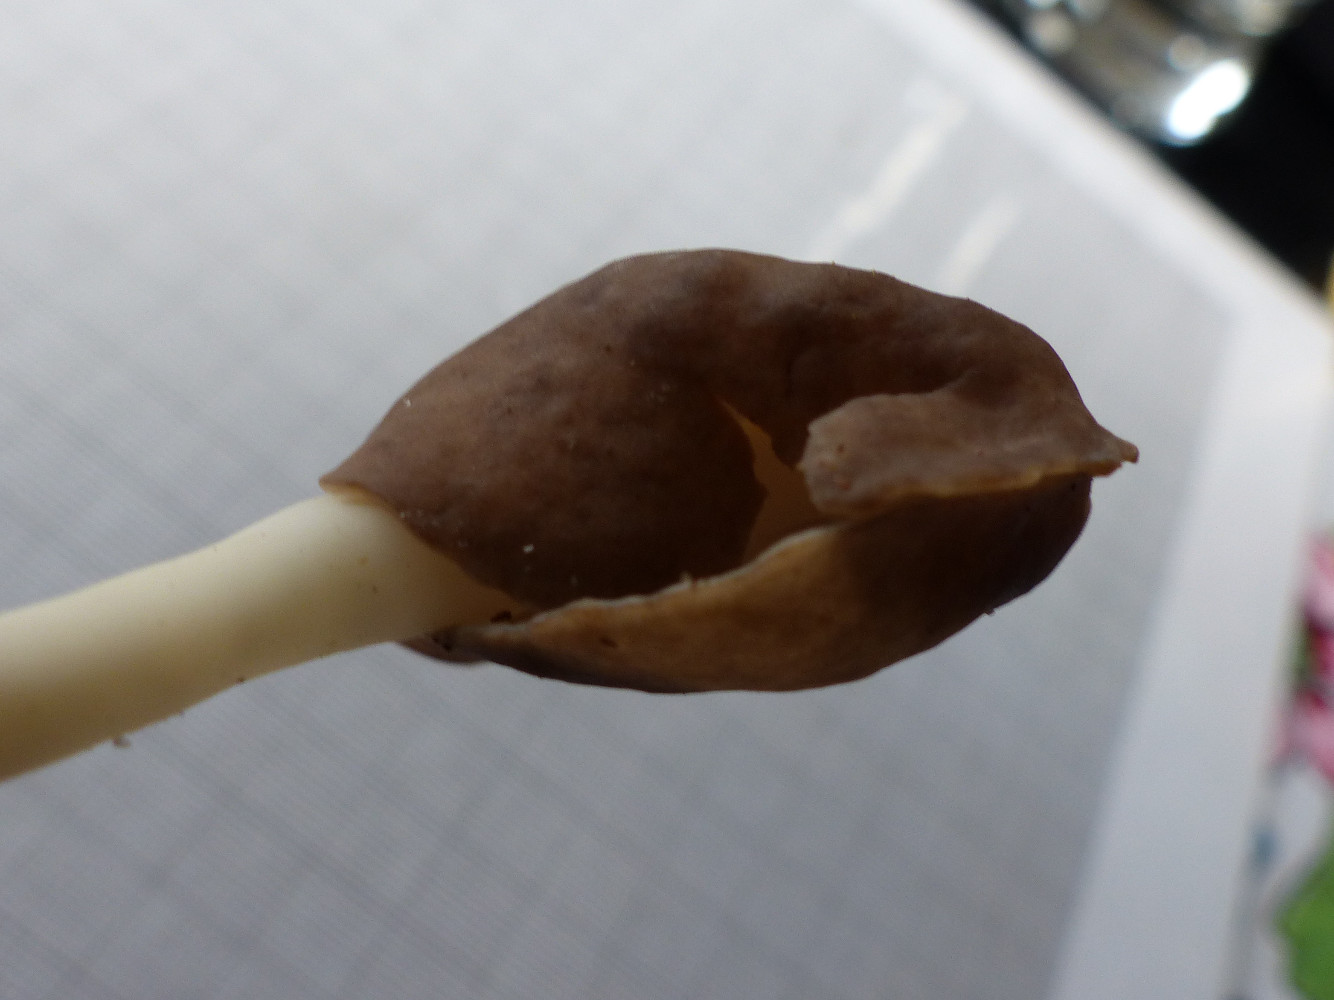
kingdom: Fungi
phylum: Ascomycota
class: Pezizomycetes
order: Pezizales
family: Helvellaceae
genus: Helvella
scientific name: Helvella
